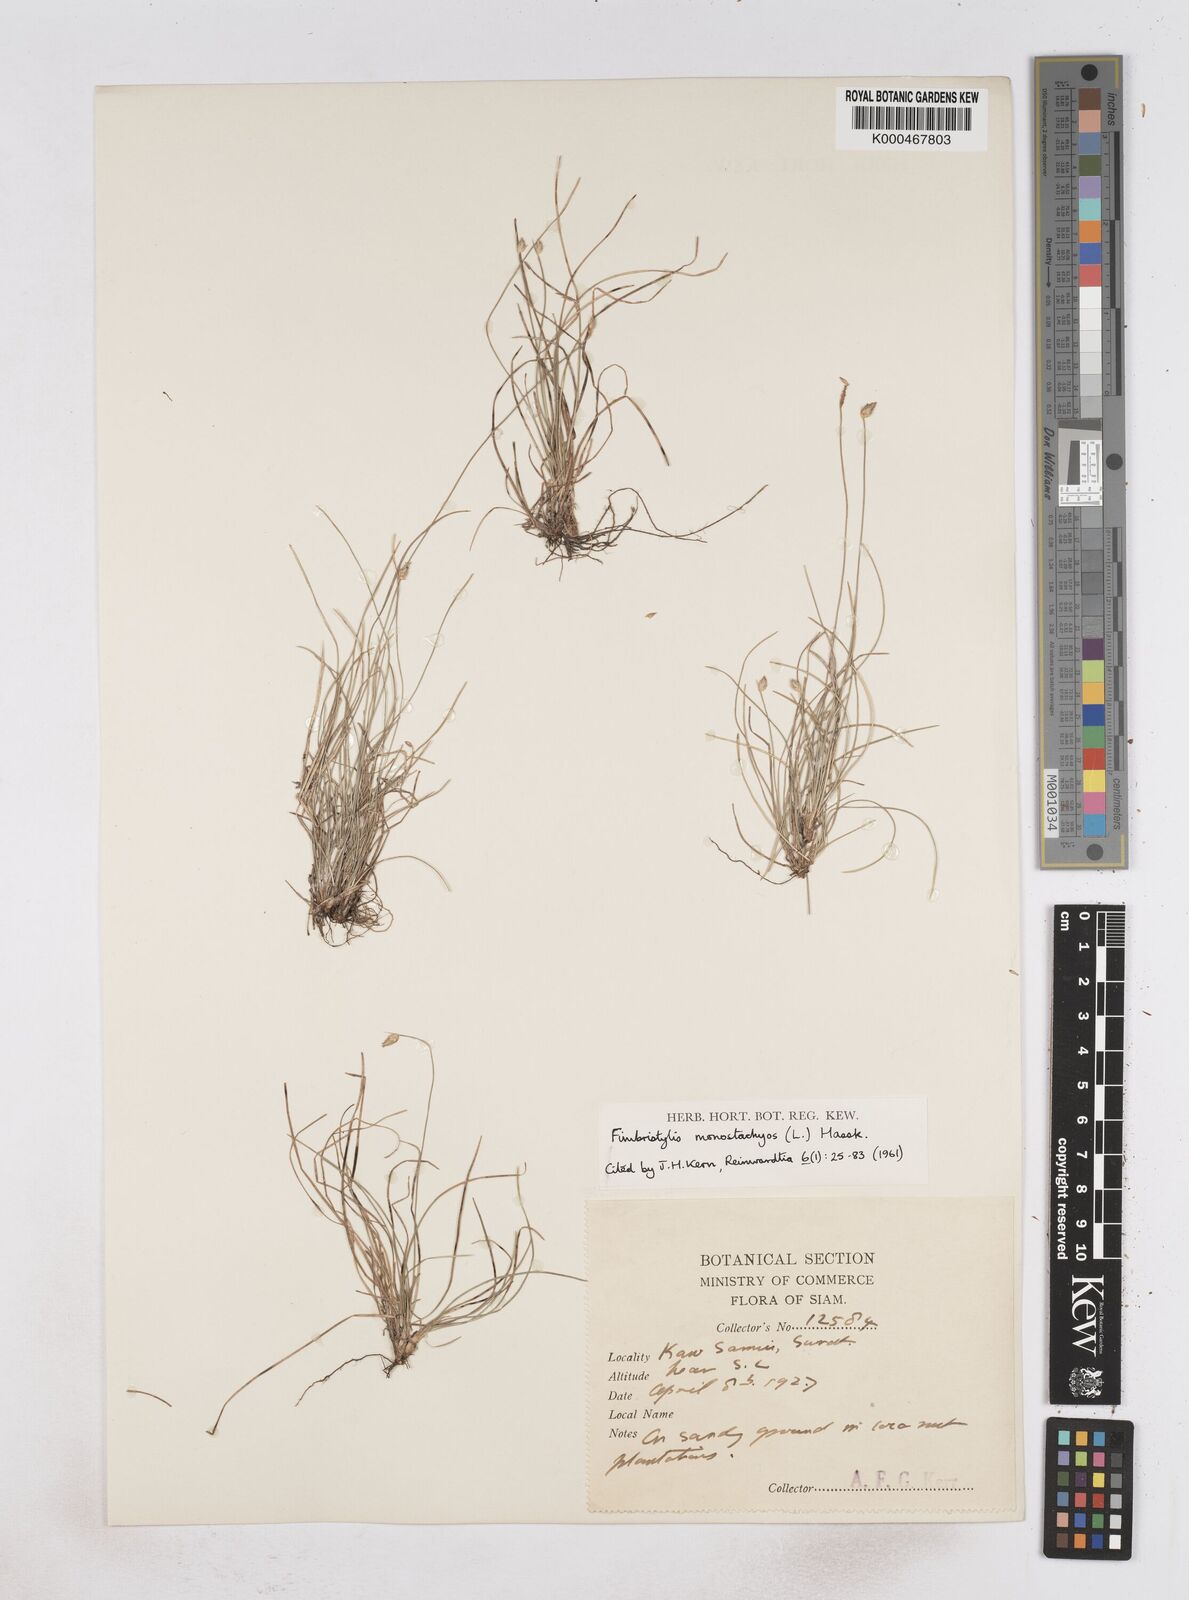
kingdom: Plantae
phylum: Tracheophyta
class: Liliopsida
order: Poales
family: Cyperaceae
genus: Abildgaardia
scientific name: Abildgaardia ovata
